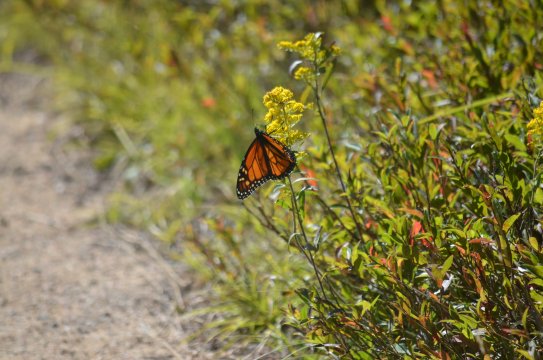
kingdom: Animalia
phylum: Arthropoda
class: Insecta
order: Lepidoptera
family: Nymphalidae
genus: Danaus
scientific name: Danaus plexippus
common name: Monarch
